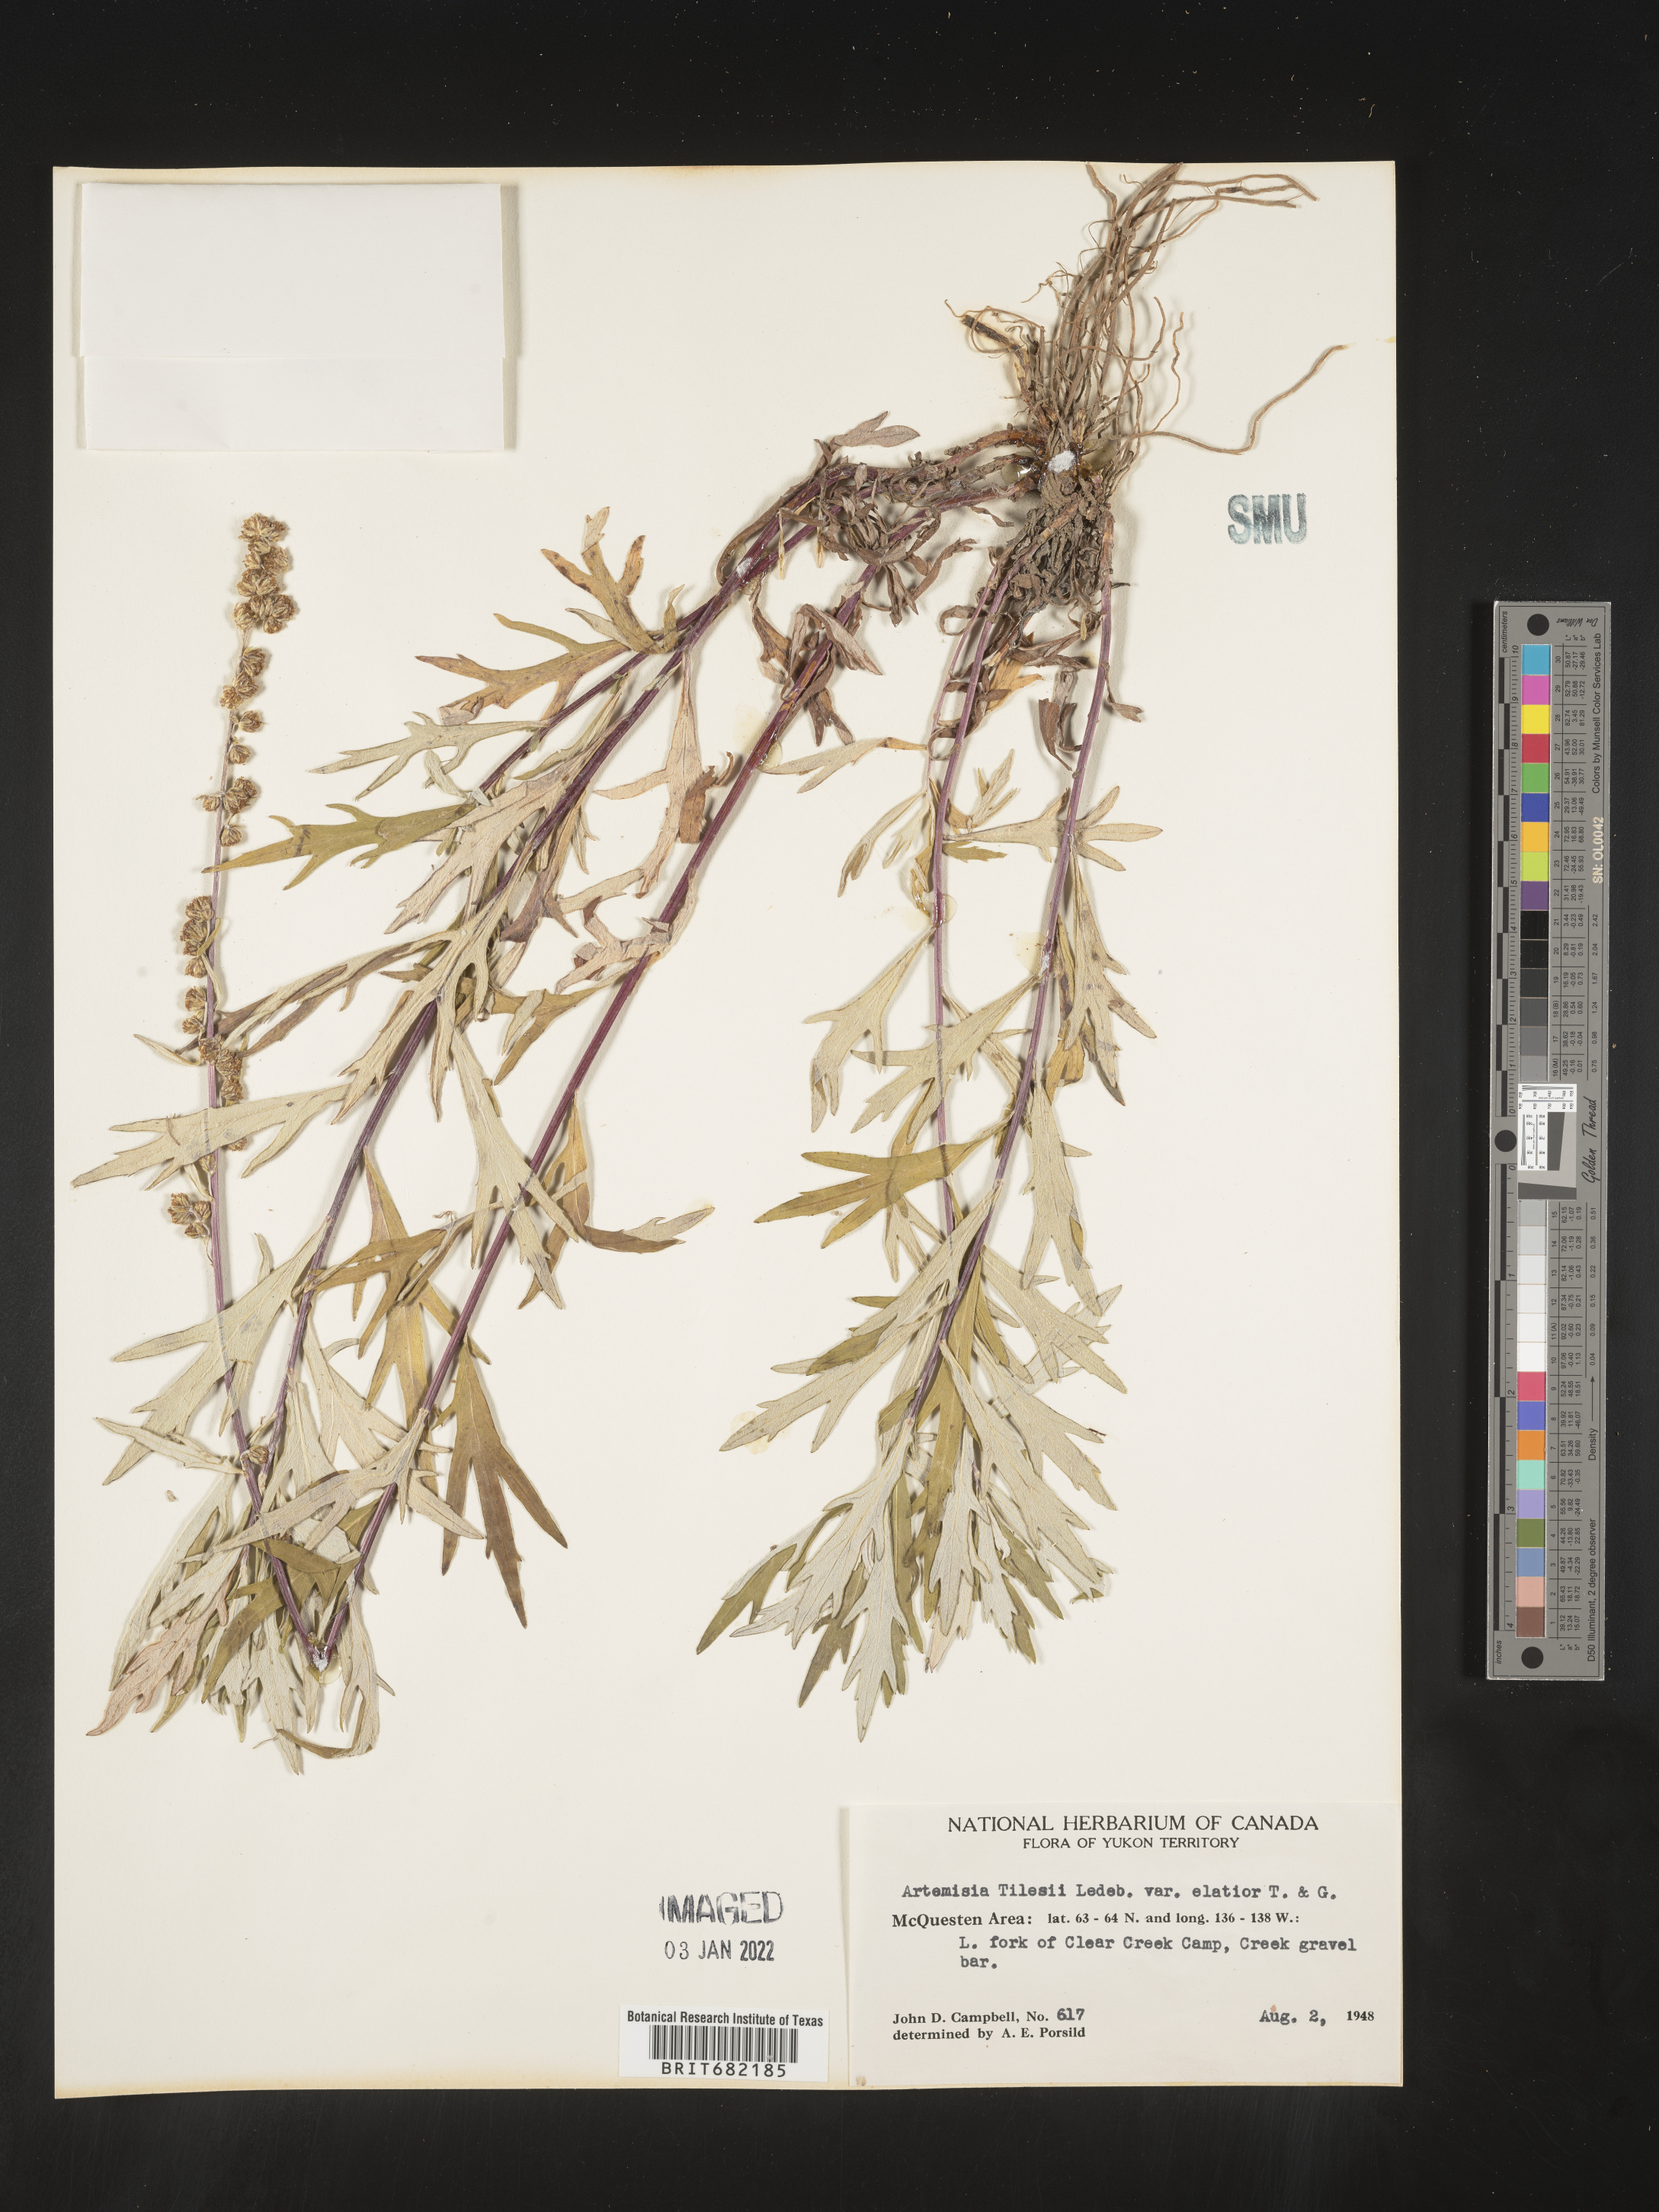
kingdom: Plantae
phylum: Tracheophyta
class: Magnoliopsida
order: Asterales
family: Asteraceae
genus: Artemisia
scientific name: Artemisia tilesii
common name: Aleutian mugwort
